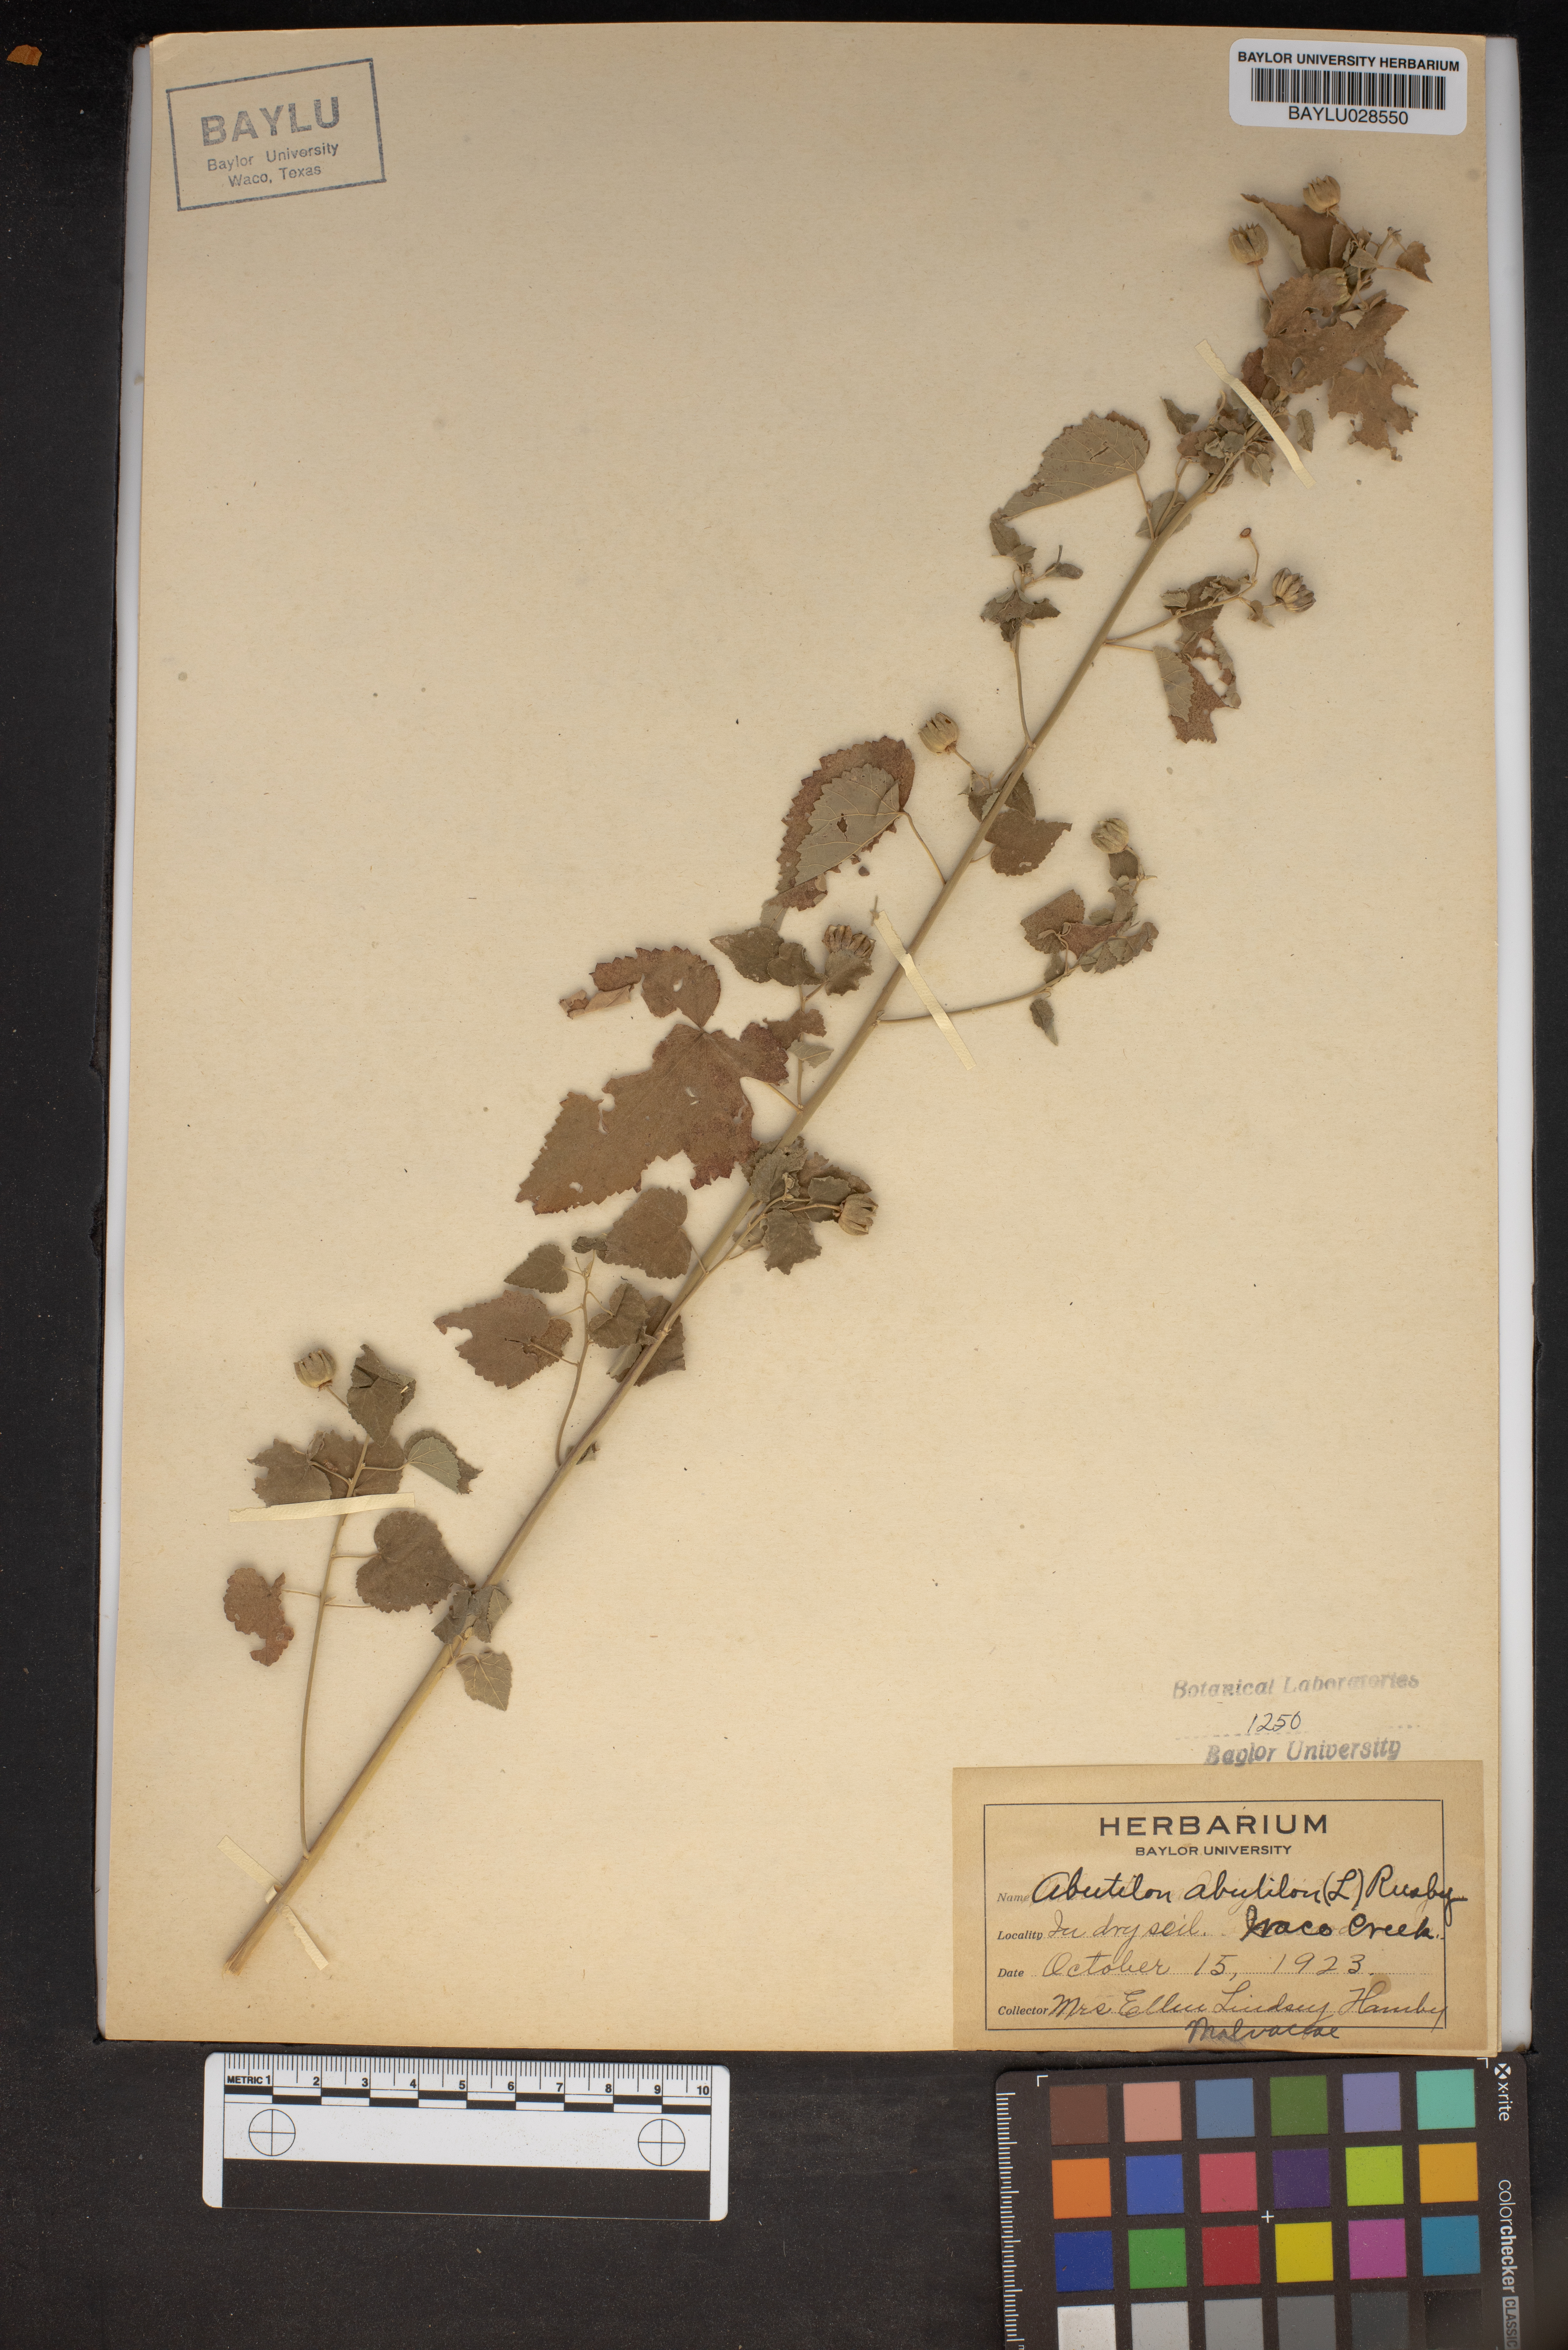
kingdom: Plantae
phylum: Tracheophyta
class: Magnoliopsida
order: Malvales
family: Malvaceae
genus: Abutilon
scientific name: Abutilon theophrasti
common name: Velvetleaf
